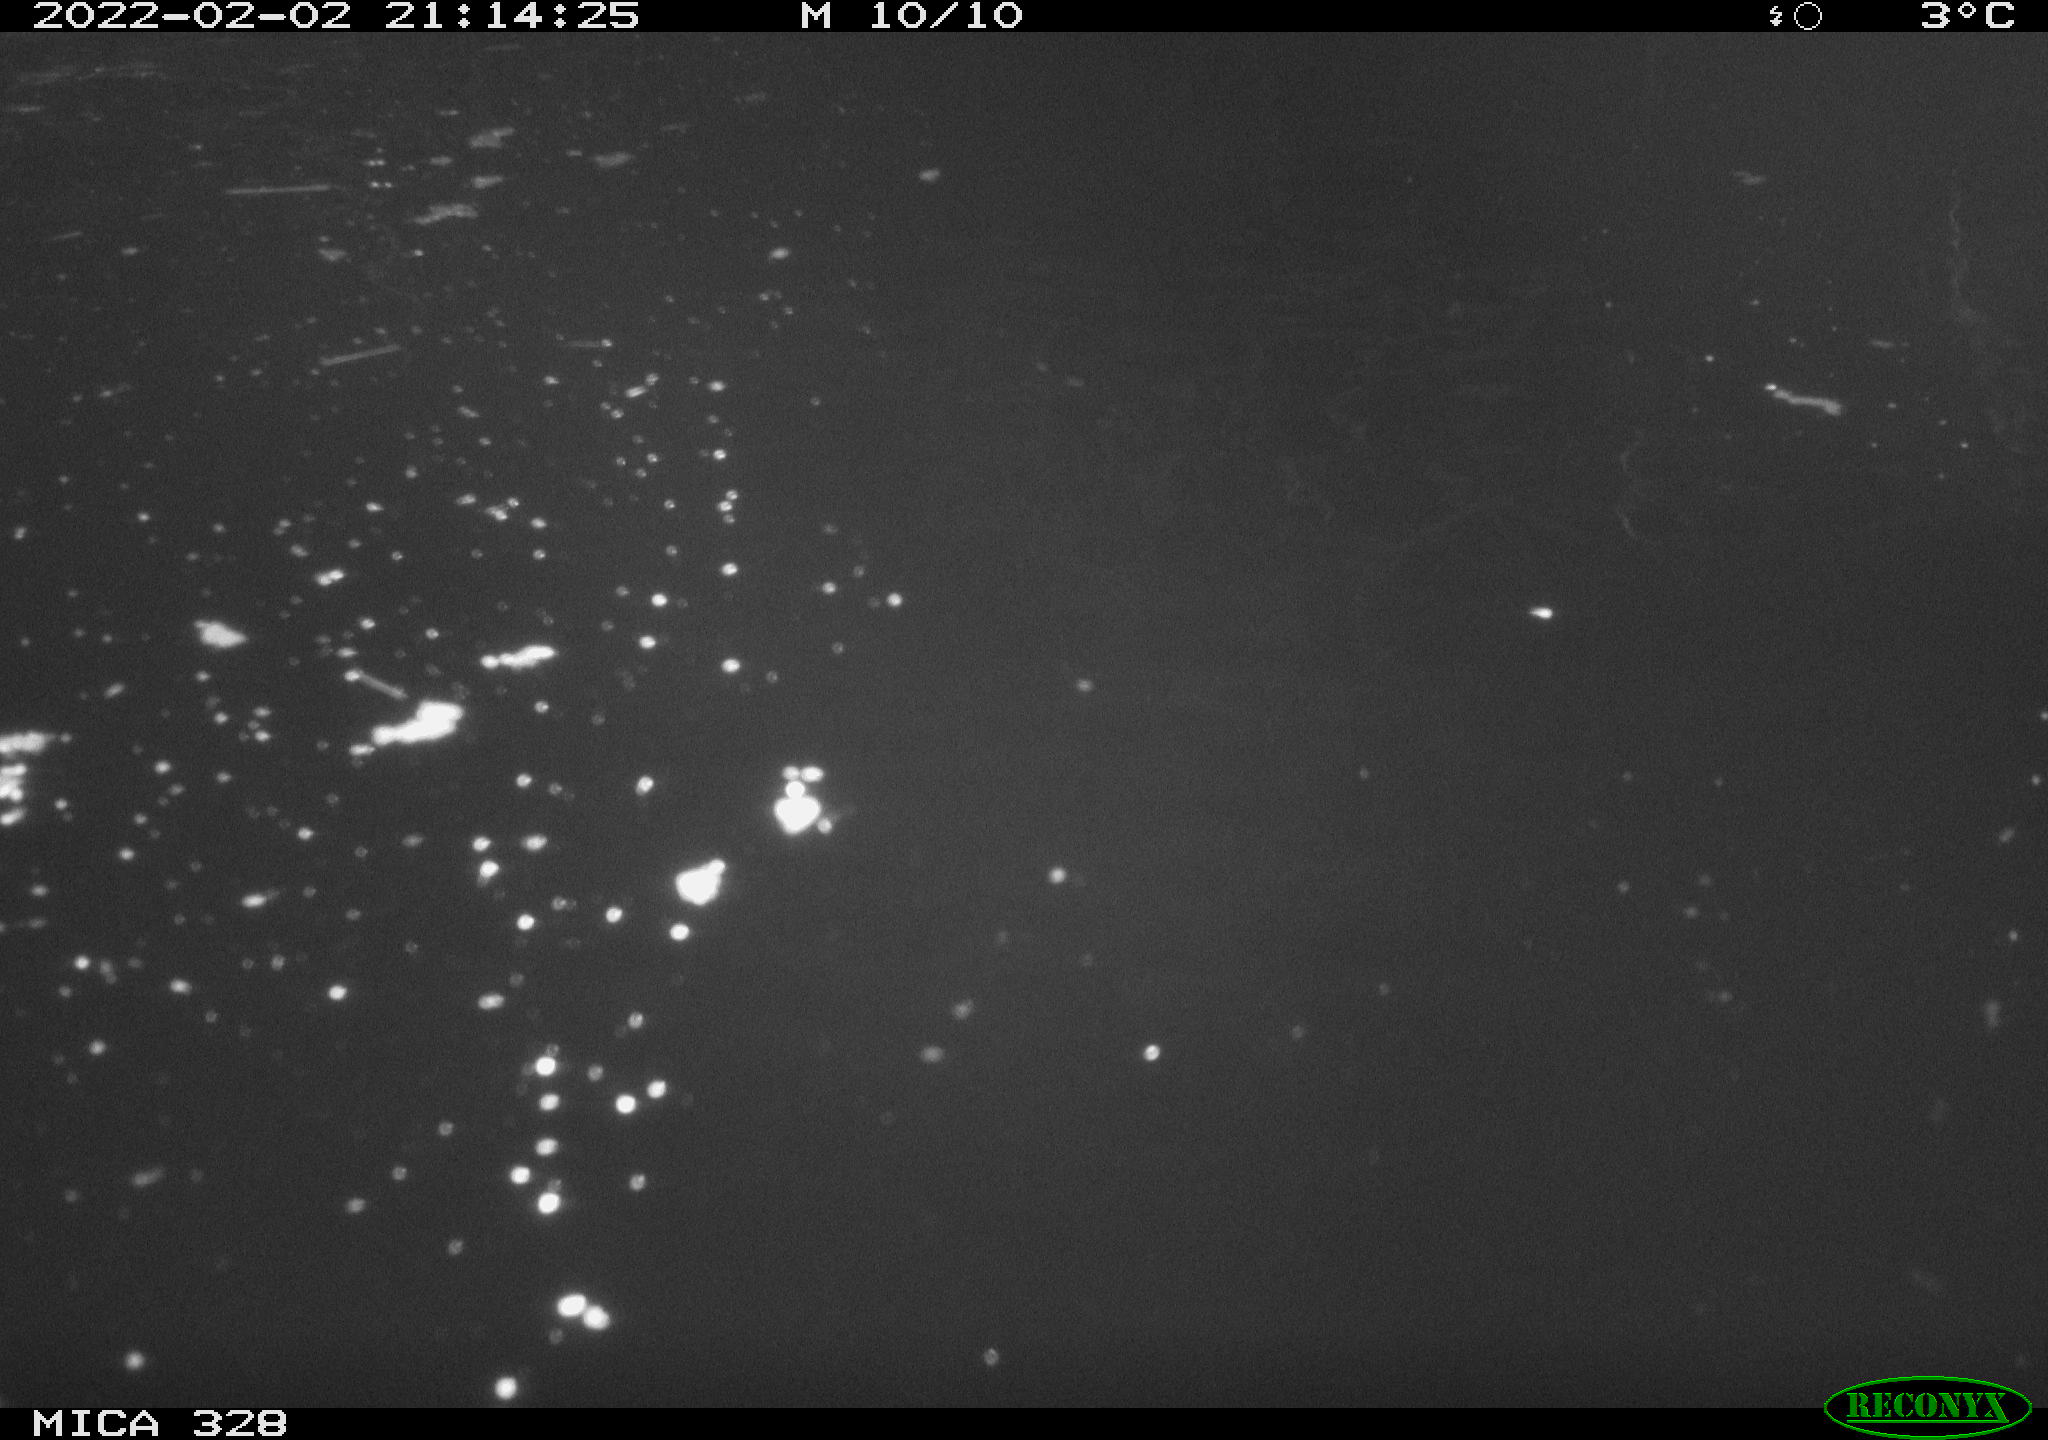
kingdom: Animalia
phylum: Chordata
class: Mammalia
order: Rodentia
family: Cricetidae
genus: Ondatra
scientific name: Ondatra zibethicus
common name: Muskrat
